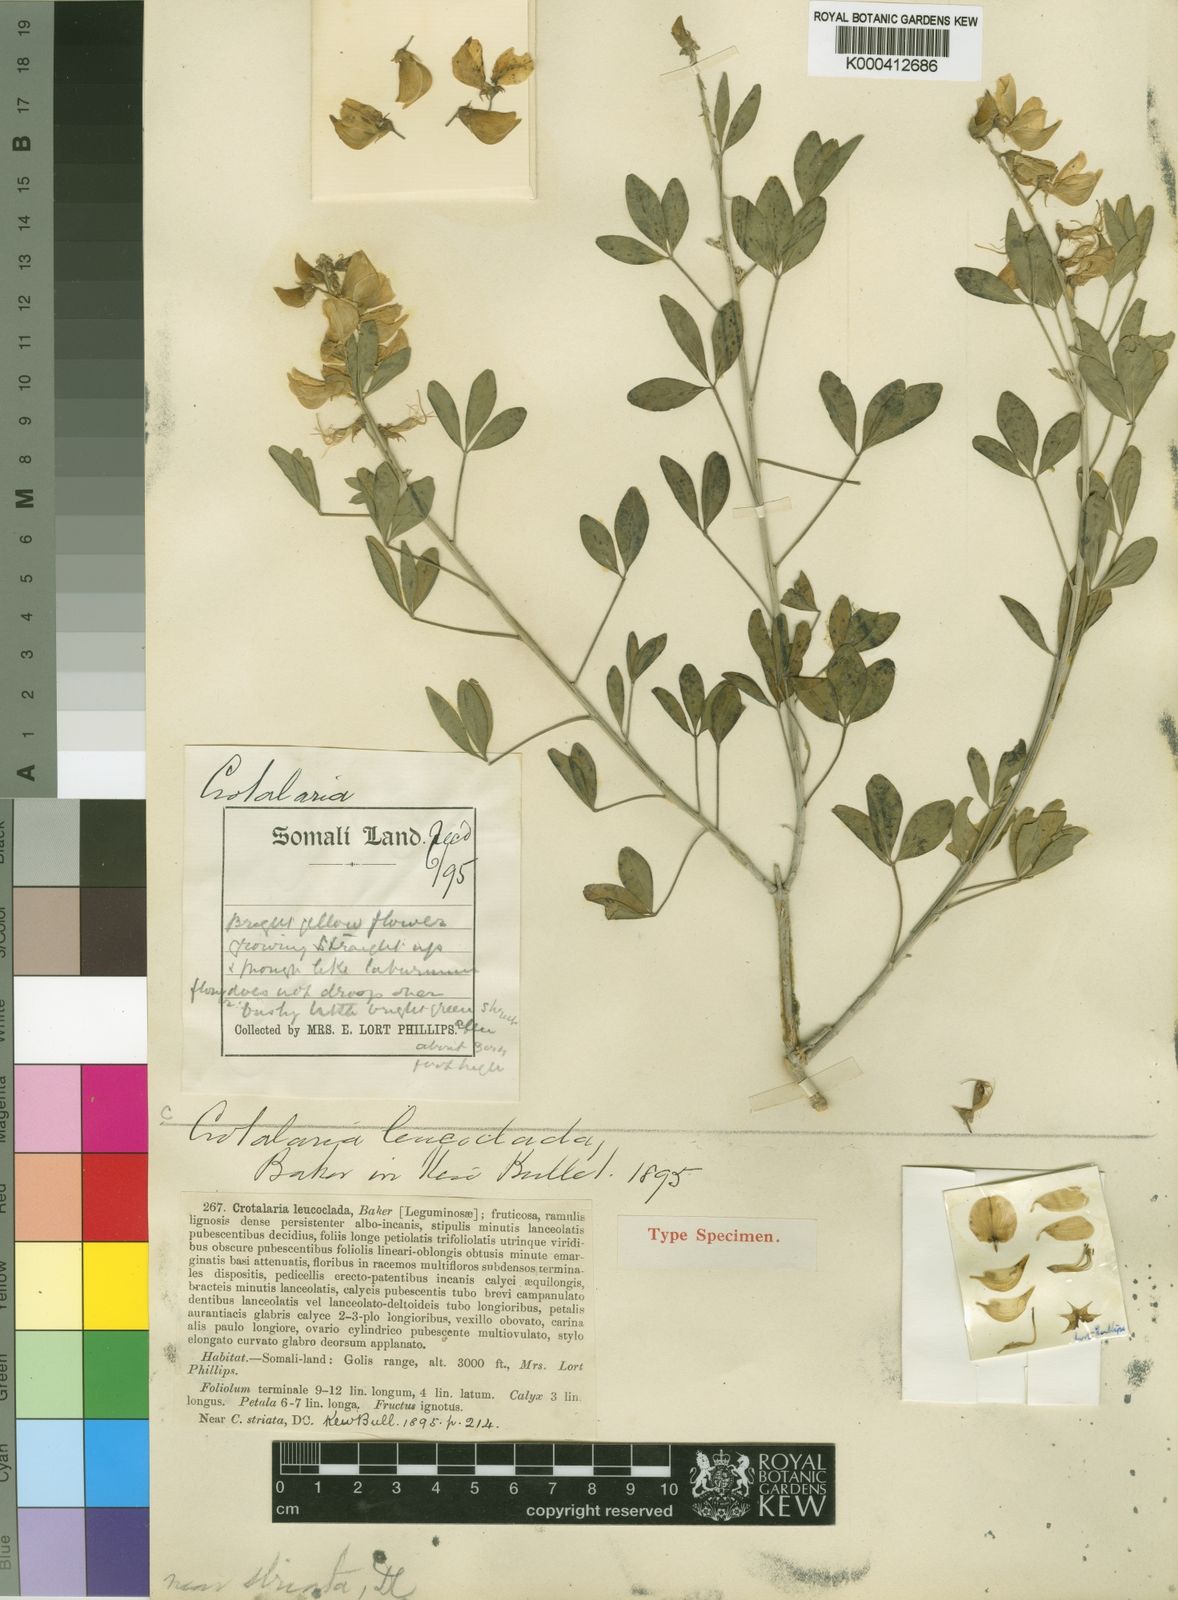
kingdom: Plantae
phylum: Tracheophyta
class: Magnoliopsida
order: Fabales
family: Fabaceae
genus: Crotalaria
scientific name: Crotalaria leucoclada
